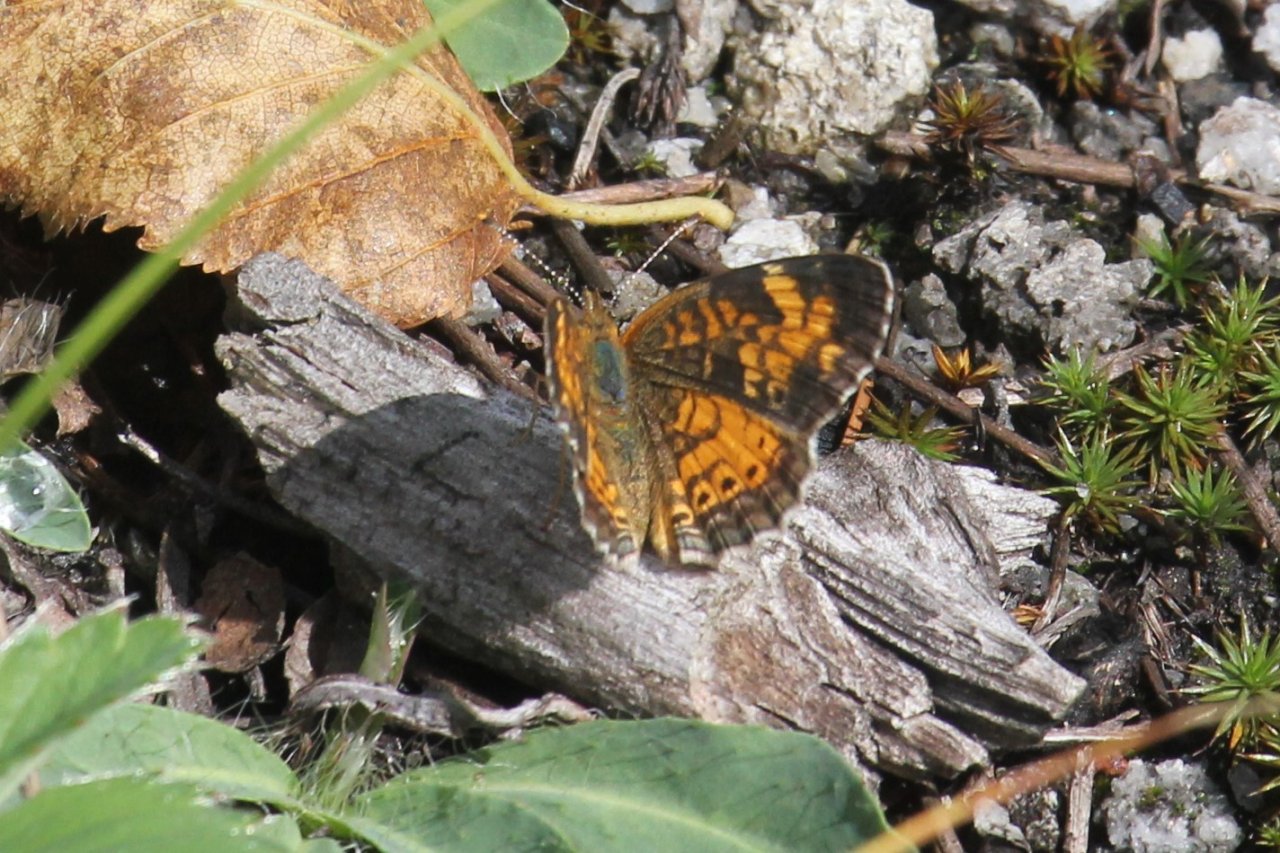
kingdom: Animalia
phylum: Arthropoda
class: Insecta
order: Lepidoptera
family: Nymphalidae
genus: Phyciodes
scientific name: Phyciodes tharos
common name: Northern Crescent
